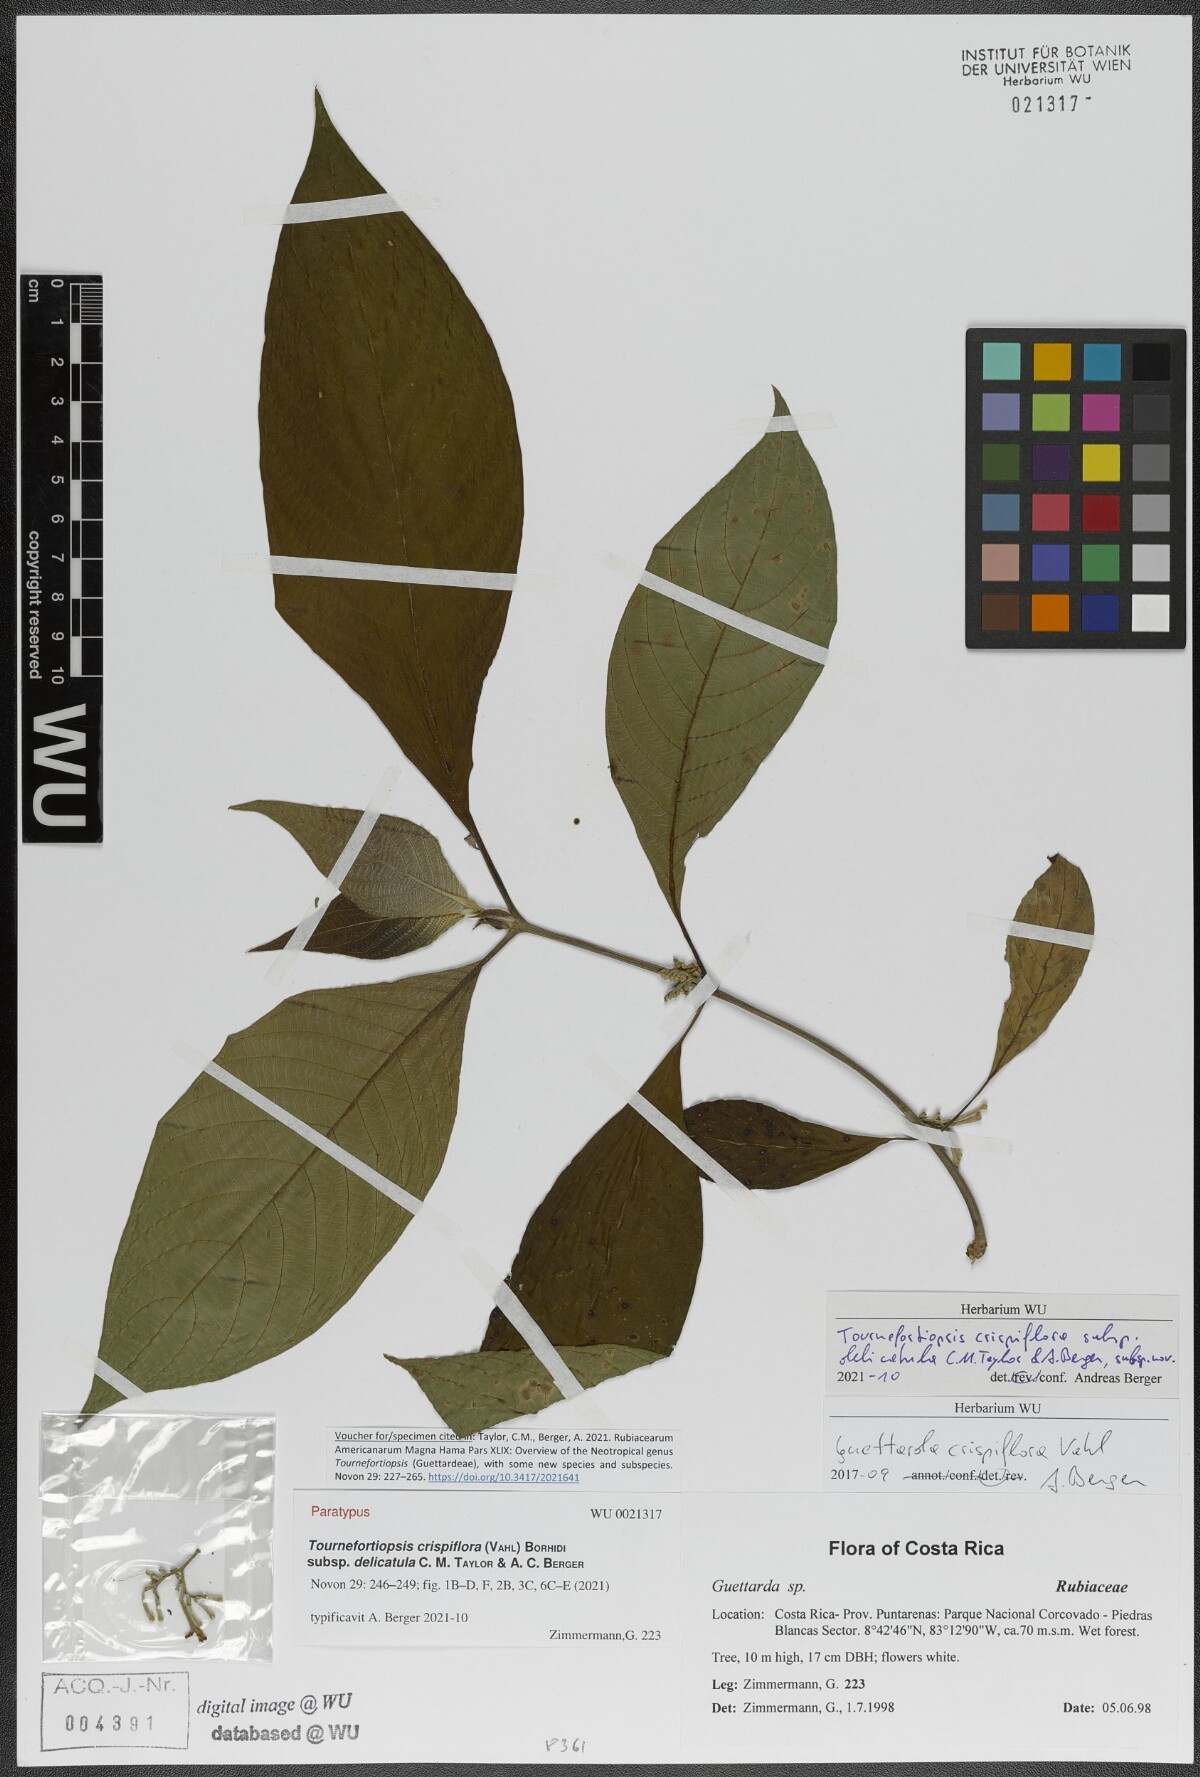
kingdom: Plantae
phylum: Tracheophyta
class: Magnoliopsida
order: Gentianales
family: Rubiaceae
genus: Tournefortiopsis
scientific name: Tournefortiopsis crispiflora
